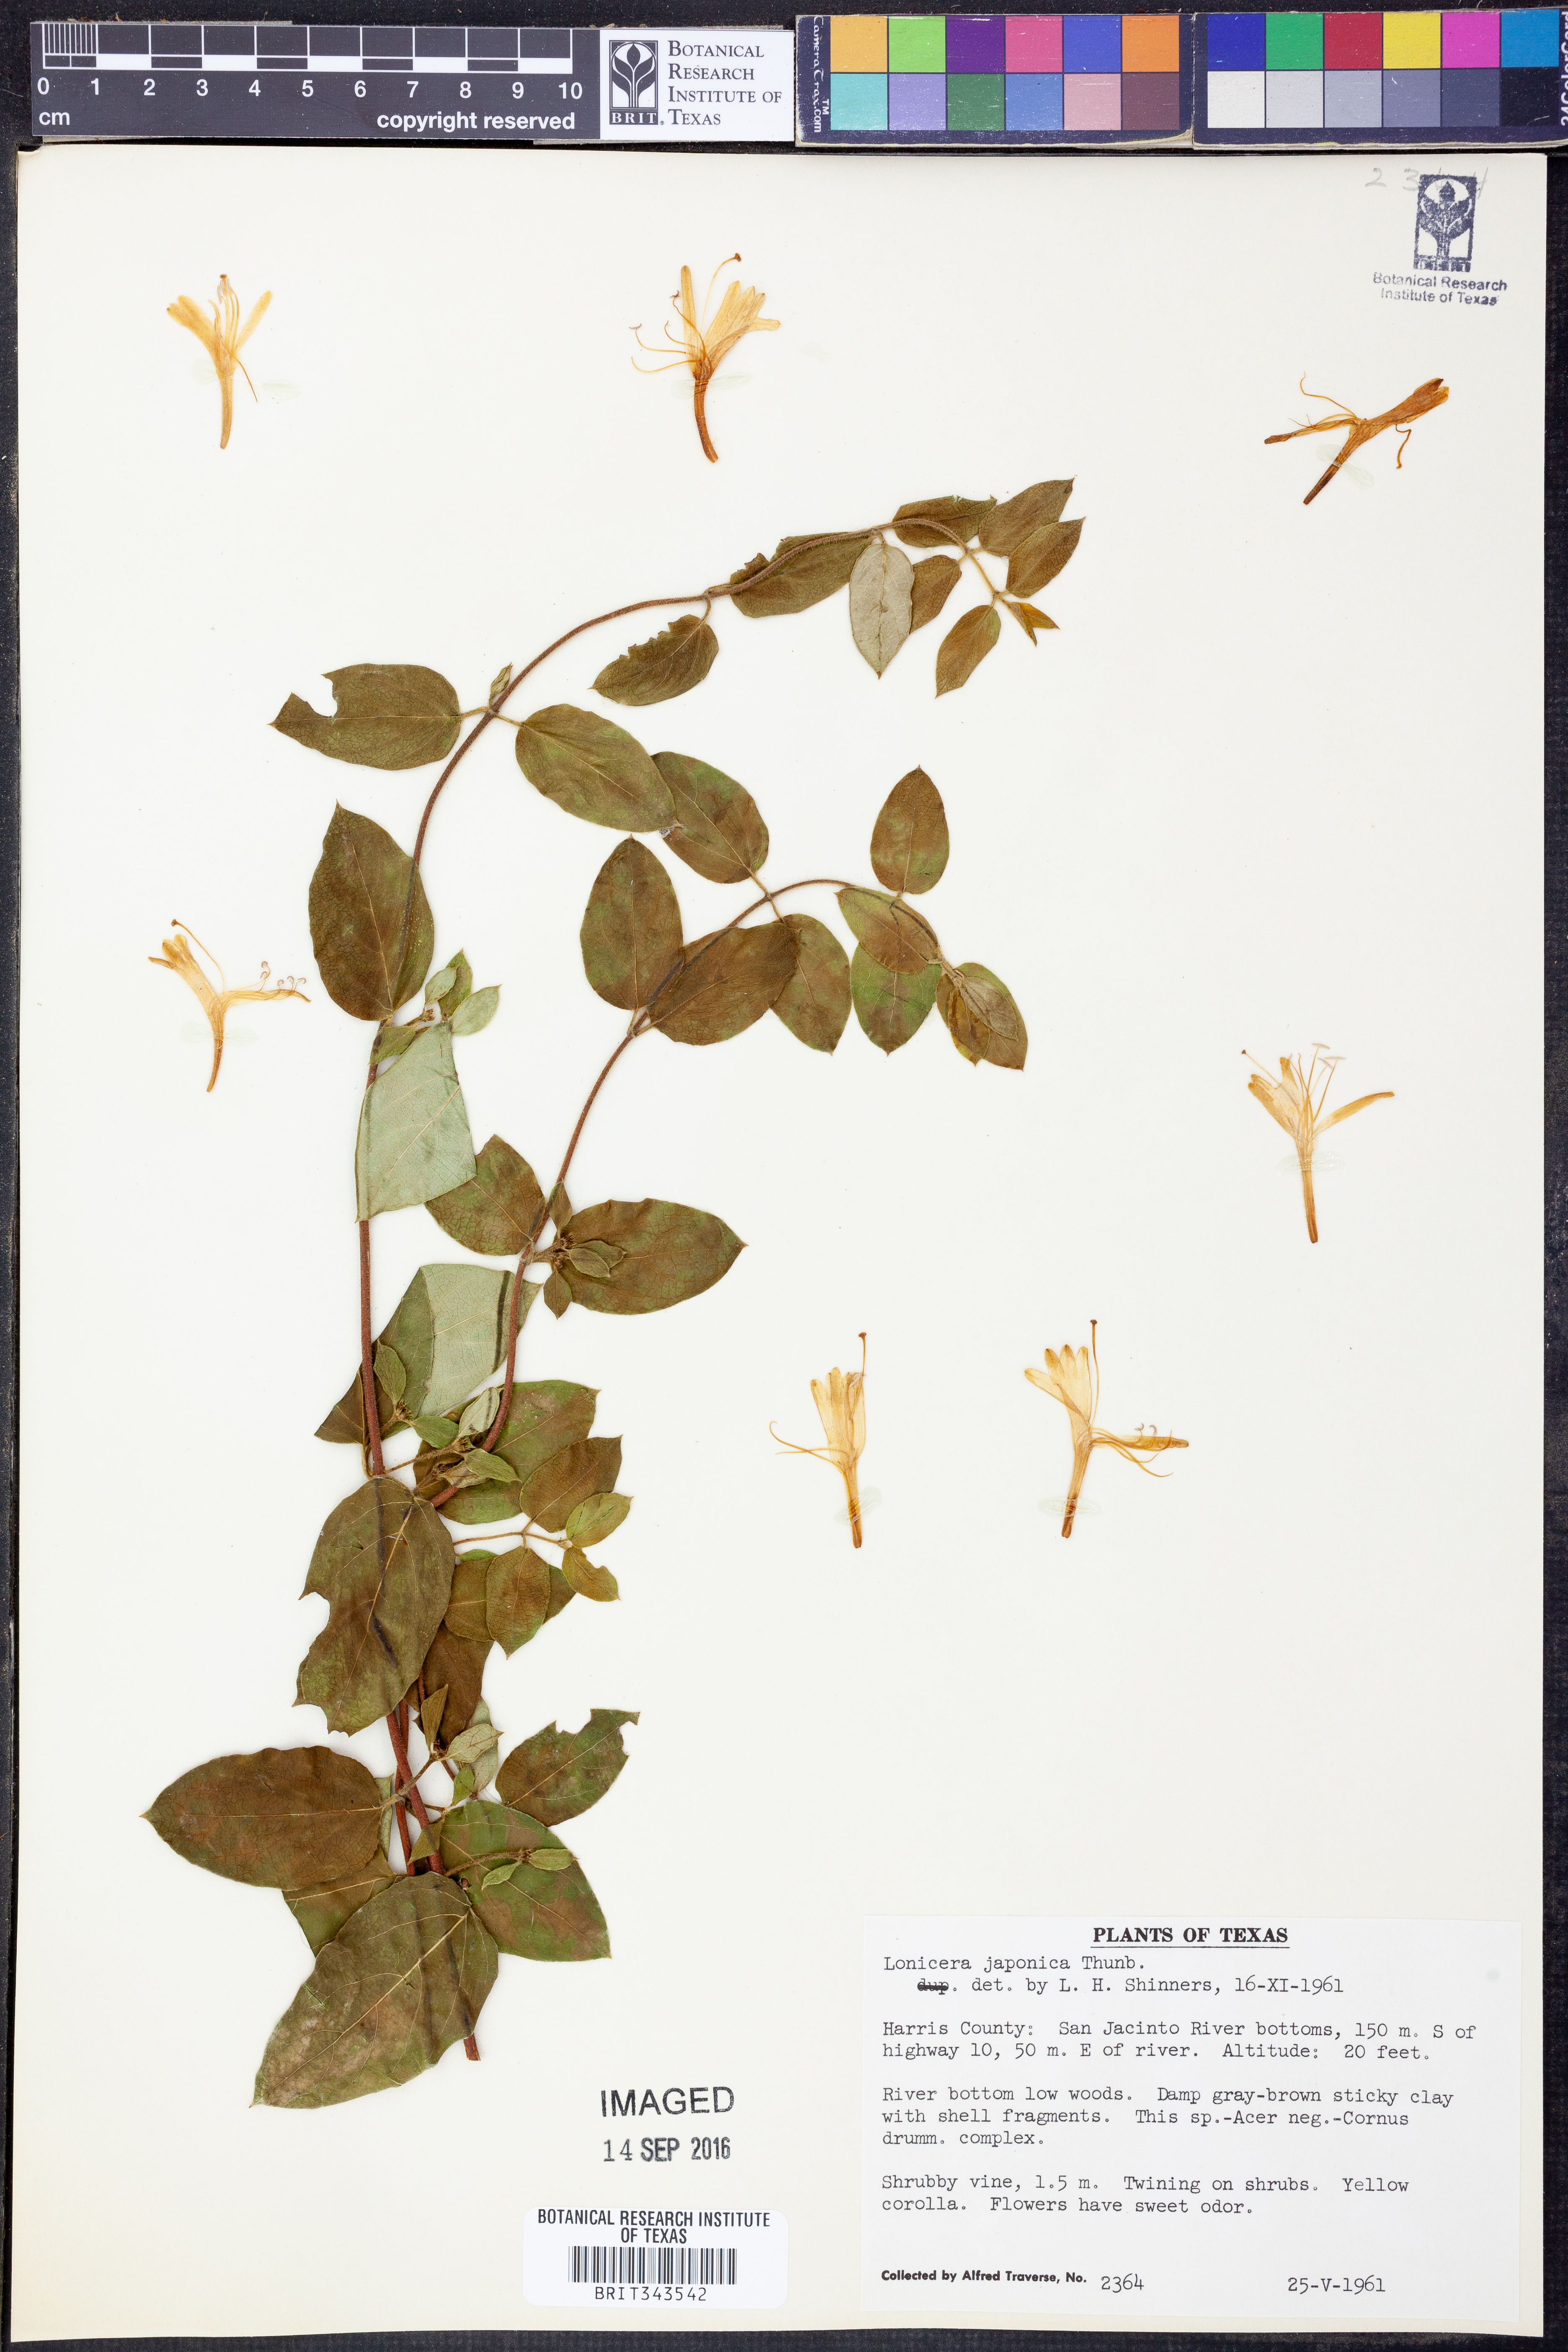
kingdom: Plantae
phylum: Tracheophyta
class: Magnoliopsida
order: Dipsacales
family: Caprifoliaceae
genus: Lonicera
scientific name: Lonicera japonica
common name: Japanese honeysuckle
